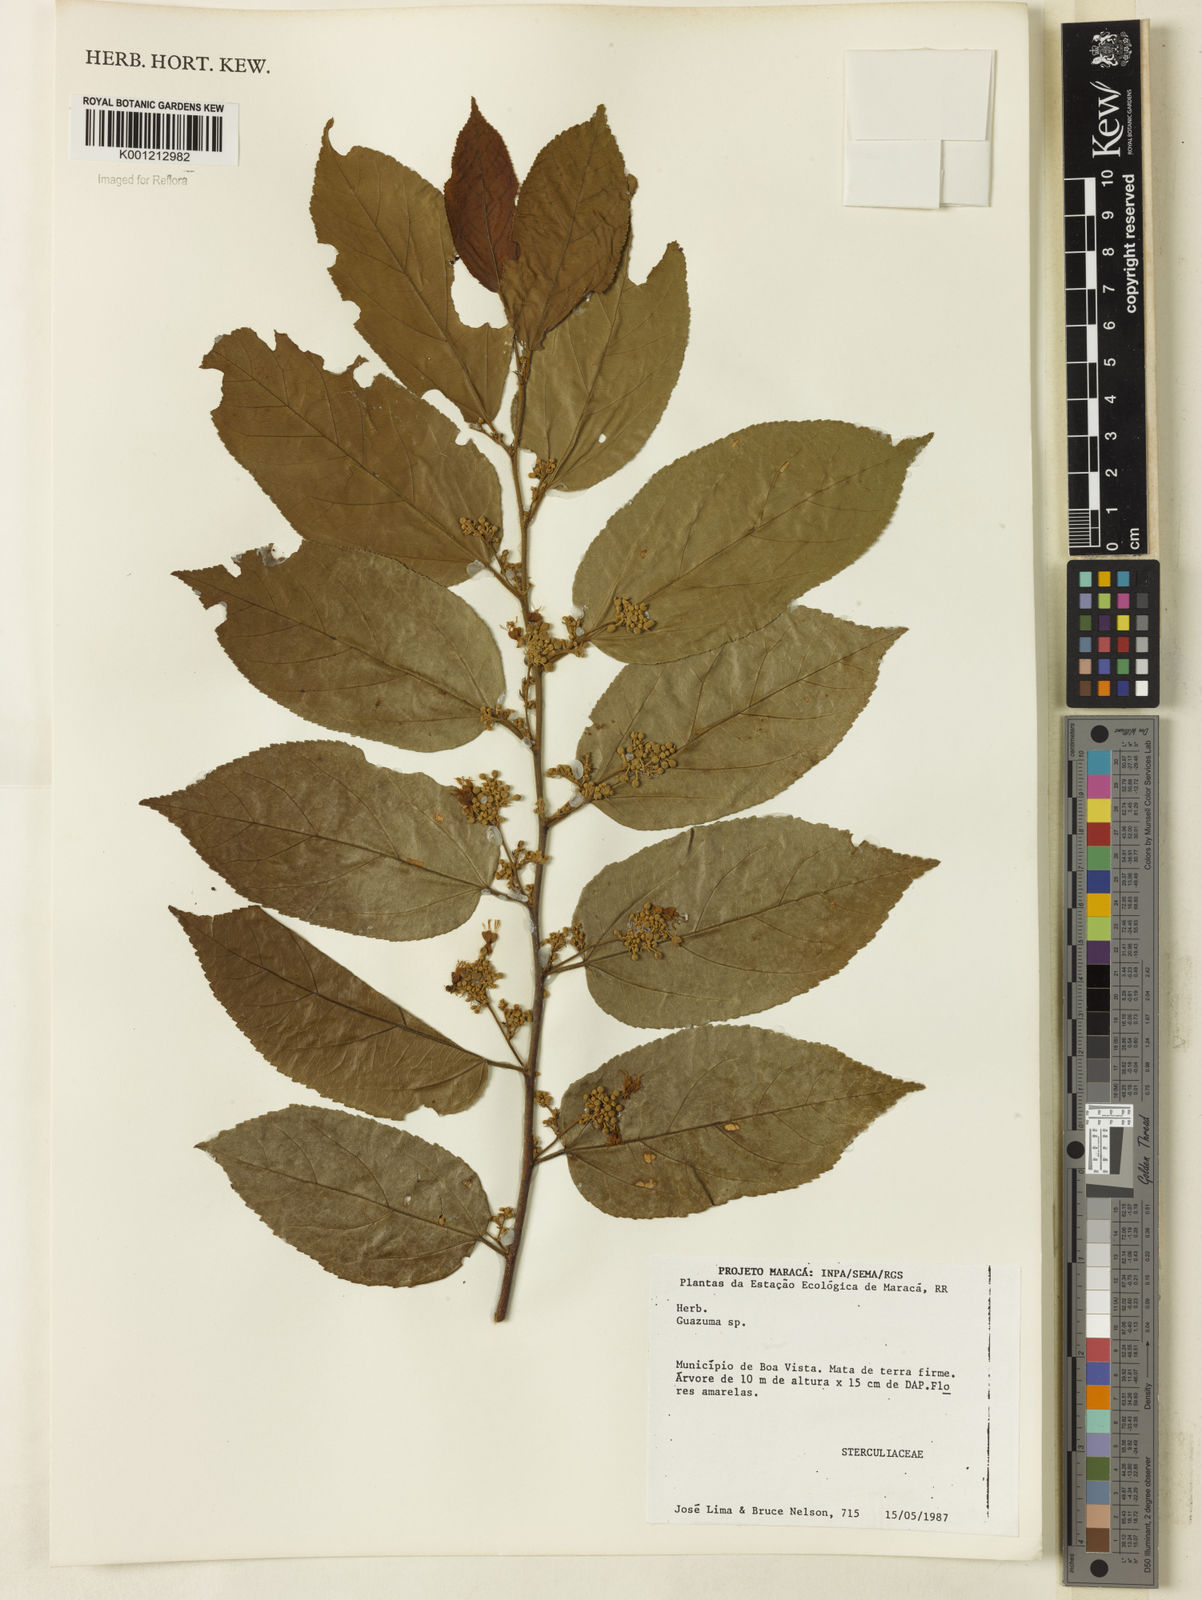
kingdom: Plantae
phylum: Tracheophyta
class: Magnoliopsida
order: Malvales
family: Malvaceae
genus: Guazuma
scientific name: Guazuma
